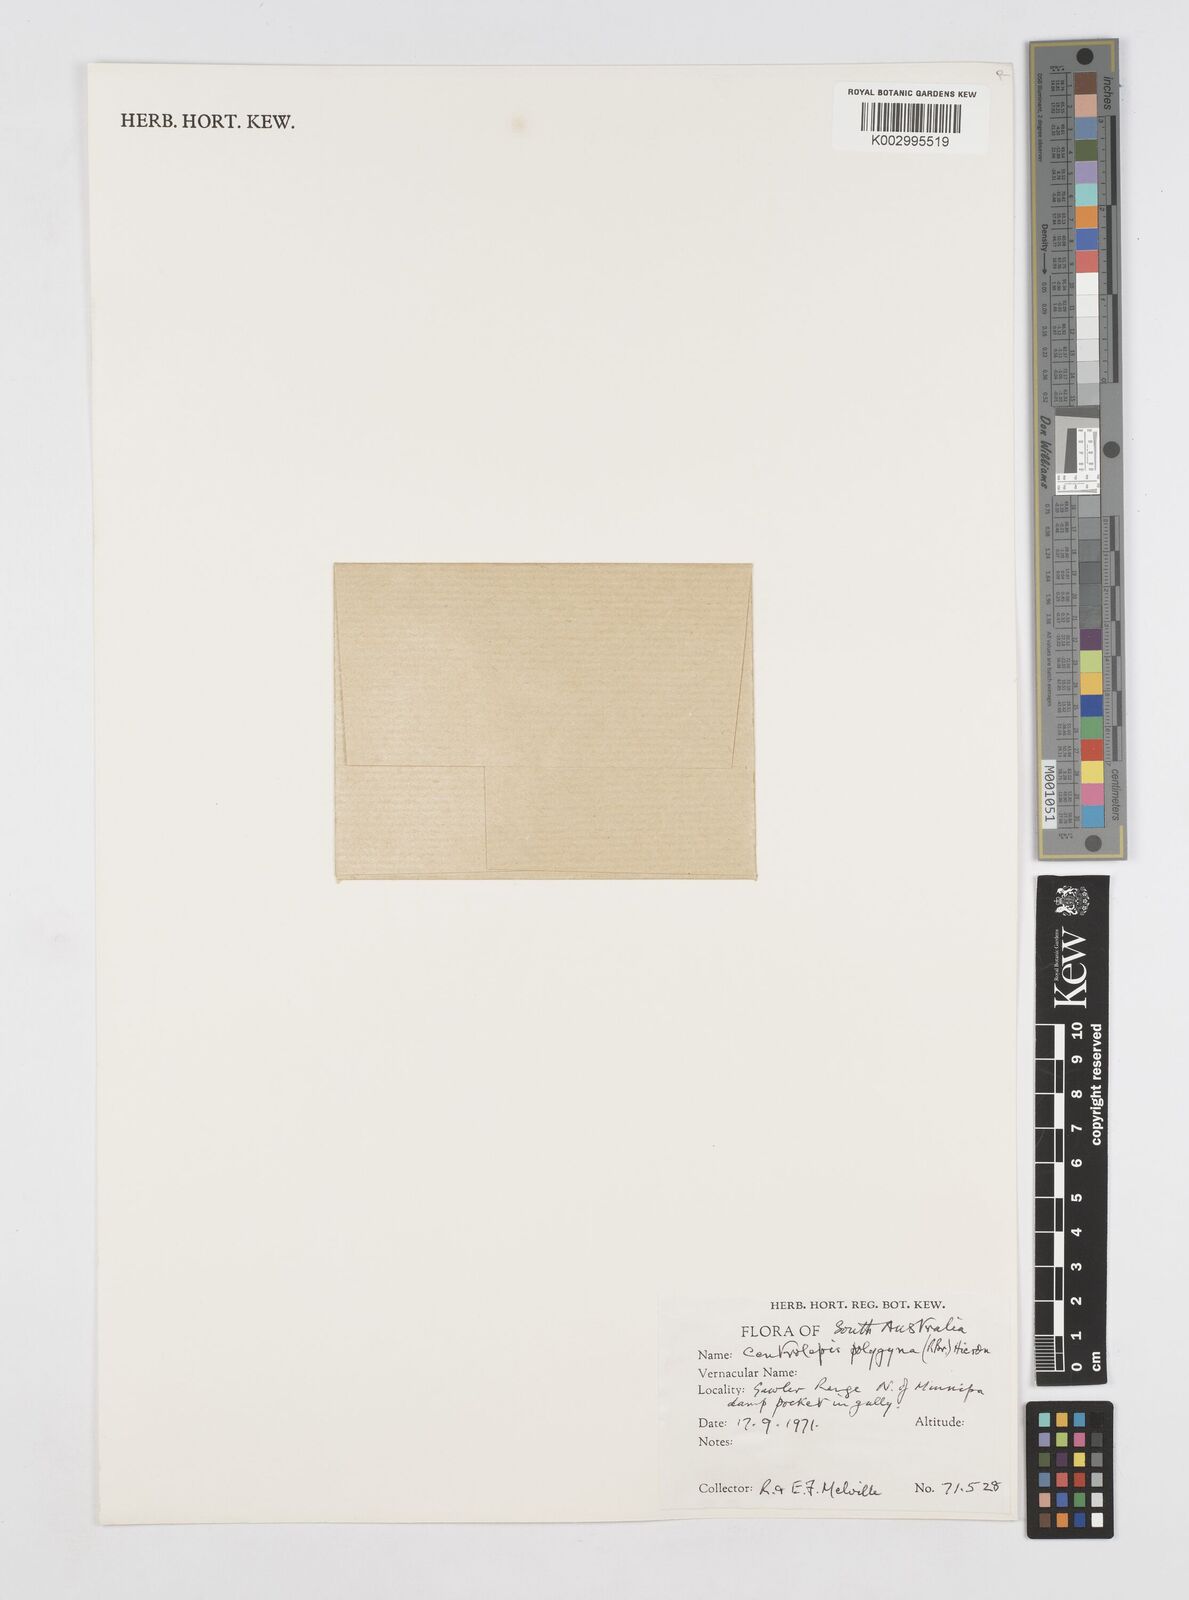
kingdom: Plantae
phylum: Tracheophyta
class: Liliopsida
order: Poales
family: Restionaceae
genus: Centrolepis
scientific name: Centrolepis polygyna
